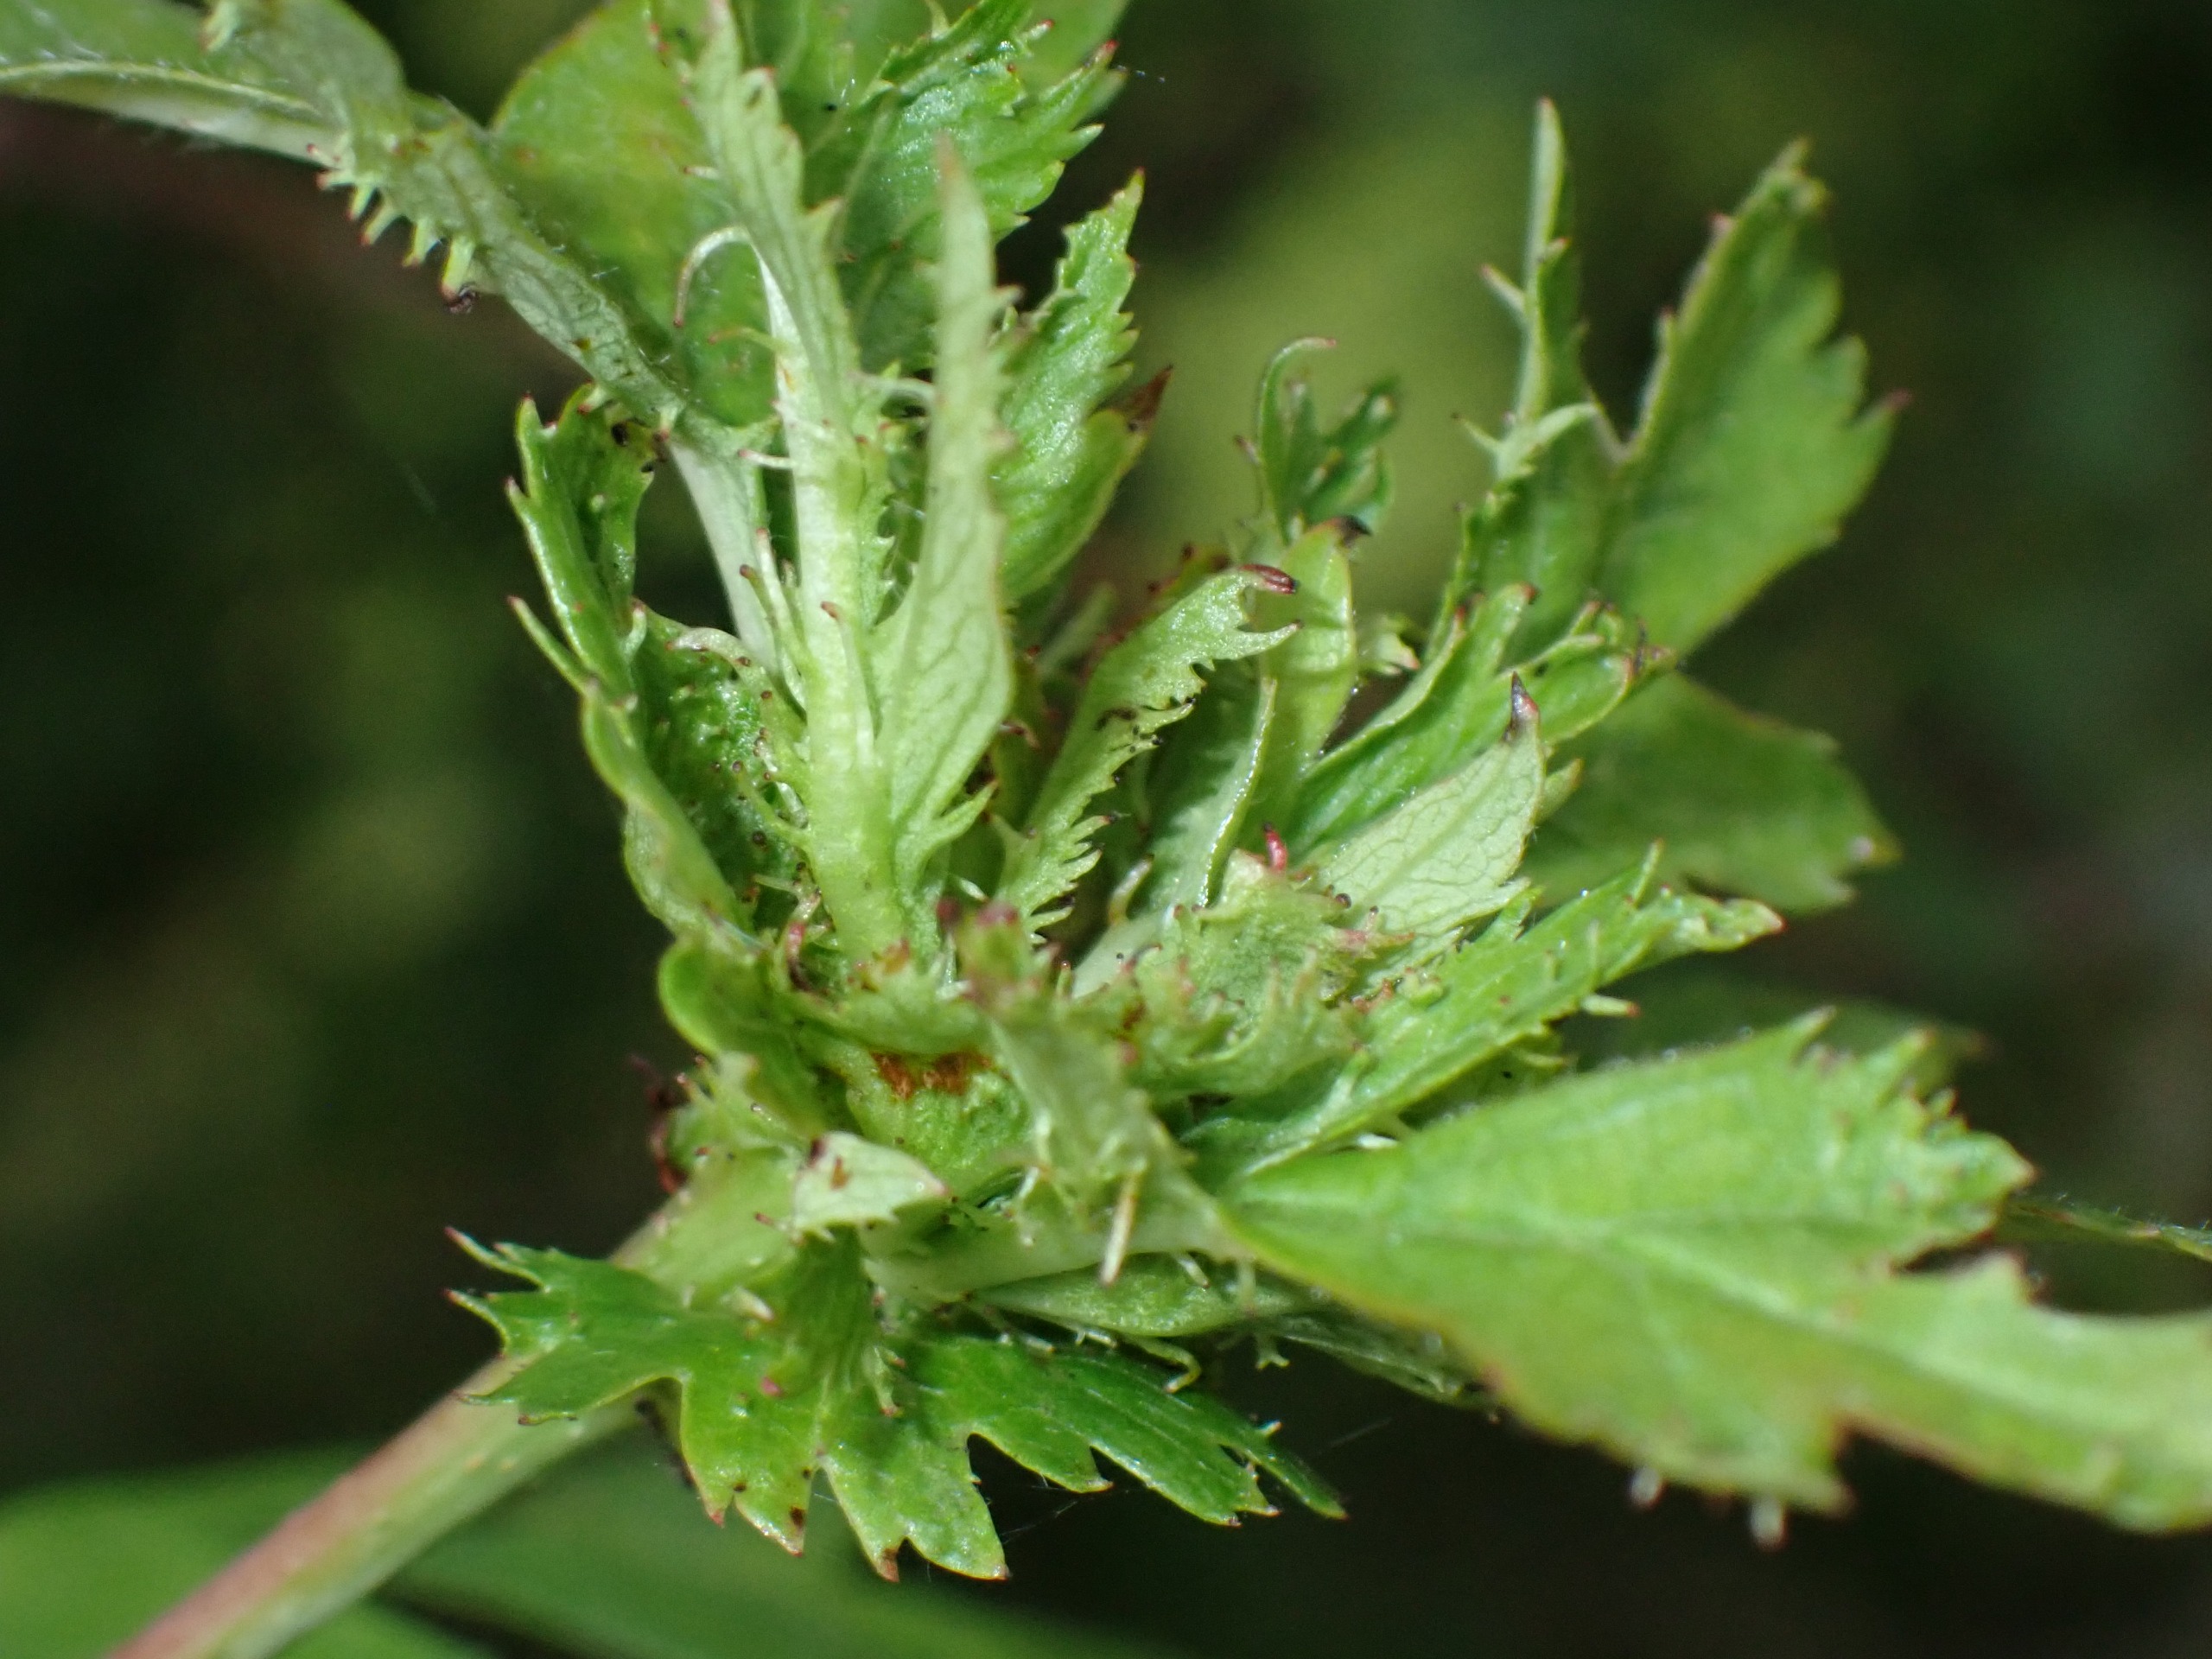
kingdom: Animalia
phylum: Arthropoda
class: Insecta
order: Diptera
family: Cecidomyiidae
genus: Dasineura
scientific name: Dasineura crataegi
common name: Tjørnerosetgalmyg
